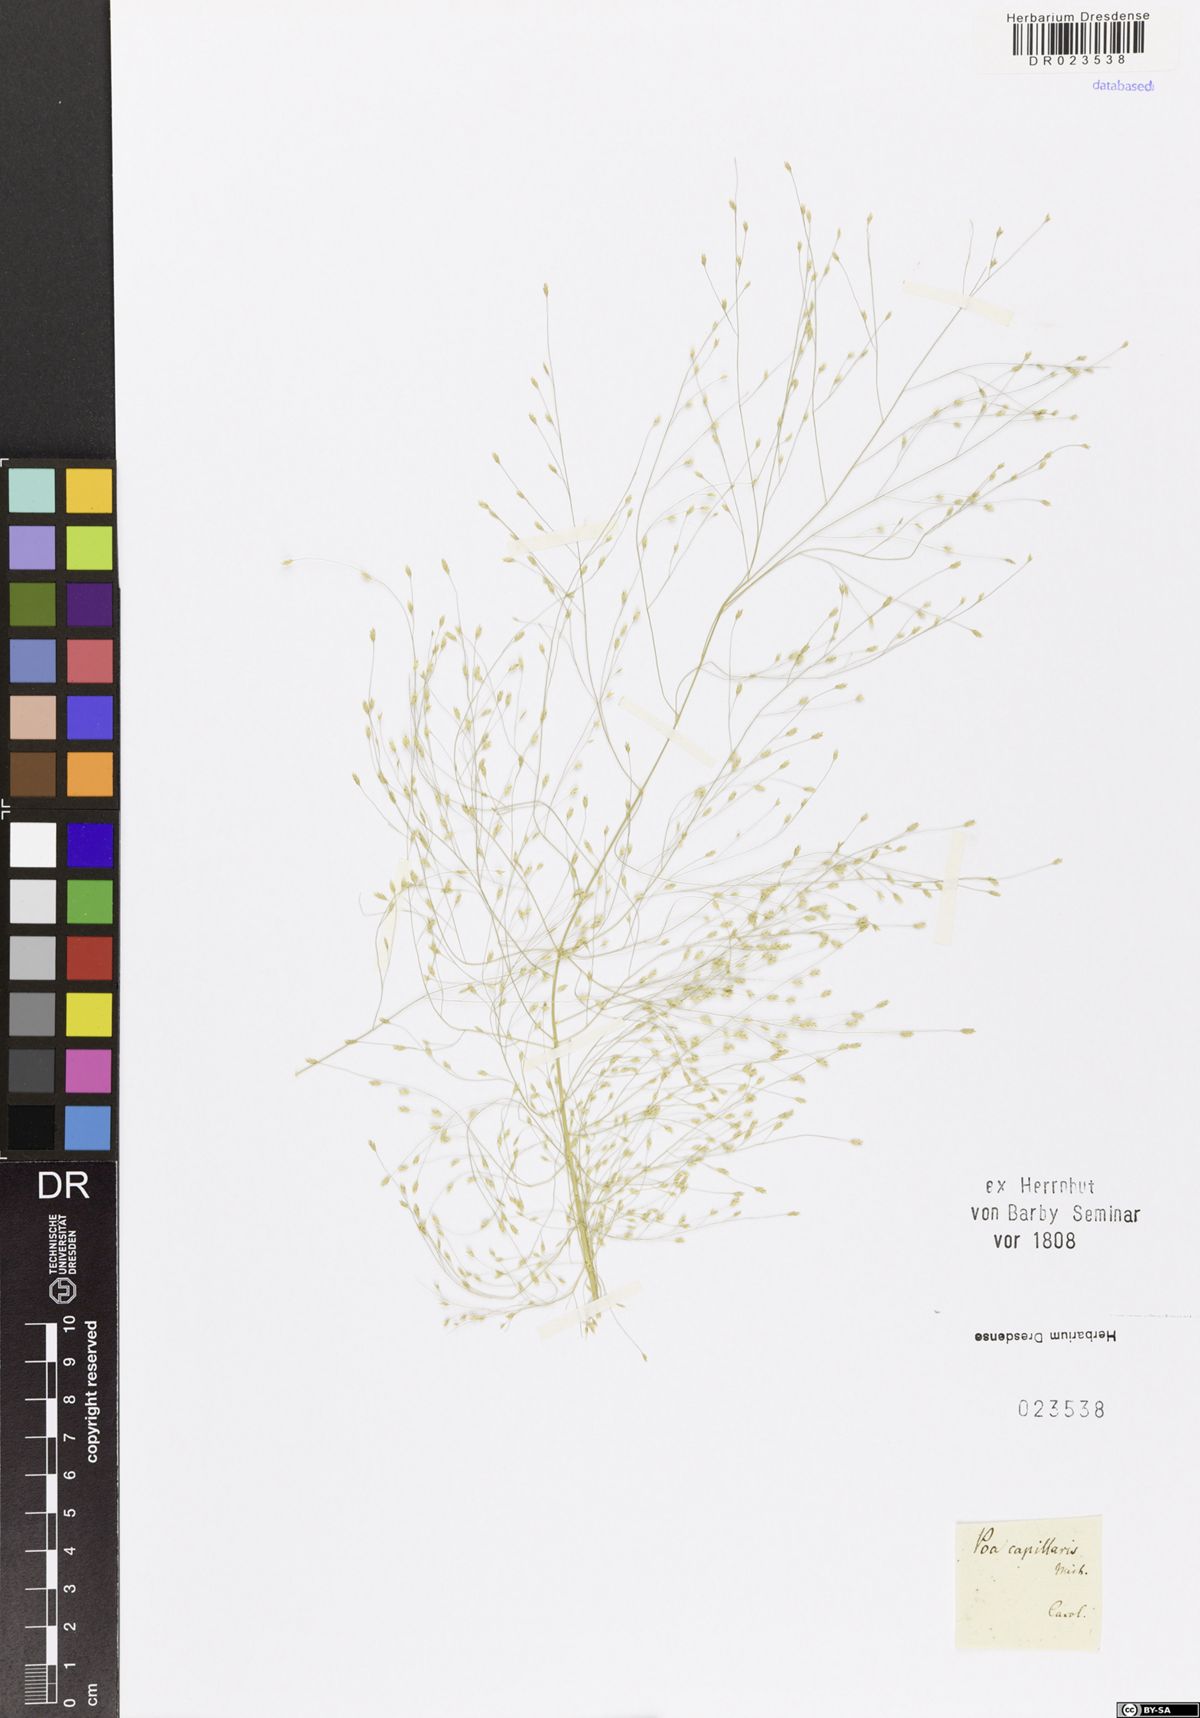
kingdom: Plantae
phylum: Tracheophyta
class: Liliopsida
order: Poales
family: Poaceae
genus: Eragrostis
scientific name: Eragrostis capillaris
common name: Hair-like lovegrass
